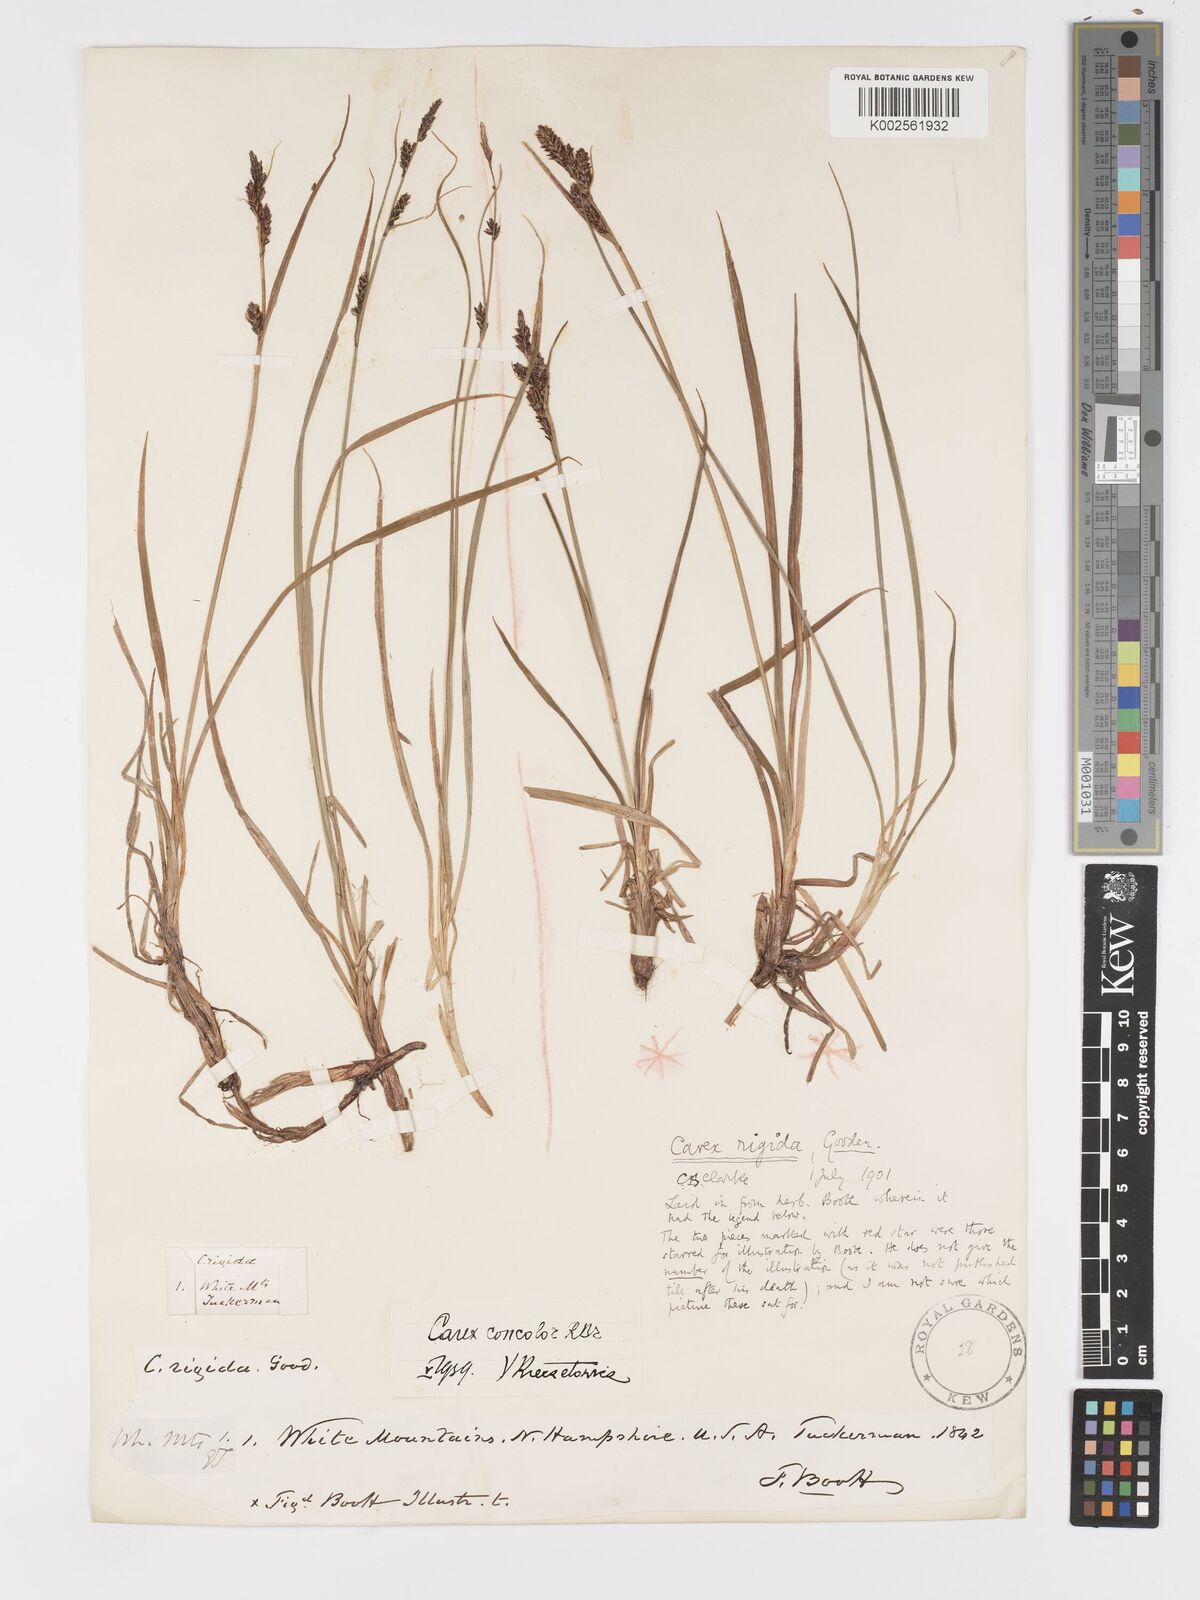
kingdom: Plantae
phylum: Tracheophyta
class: Liliopsida
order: Poales
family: Cyperaceae
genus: Carex
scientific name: Carex bigelowii
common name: Stiff sedge
